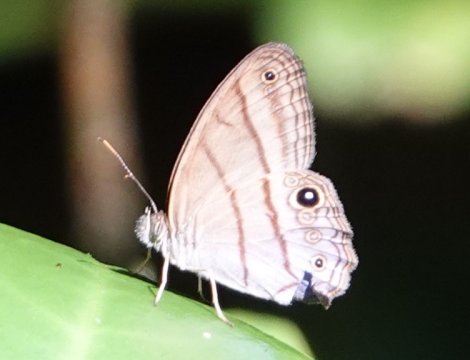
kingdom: Animalia
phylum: Arthropoda
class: Insecta
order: Lepidoptera
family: Nymphalidae
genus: Chloreuptychia
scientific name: Chloreuptychia arnaca
